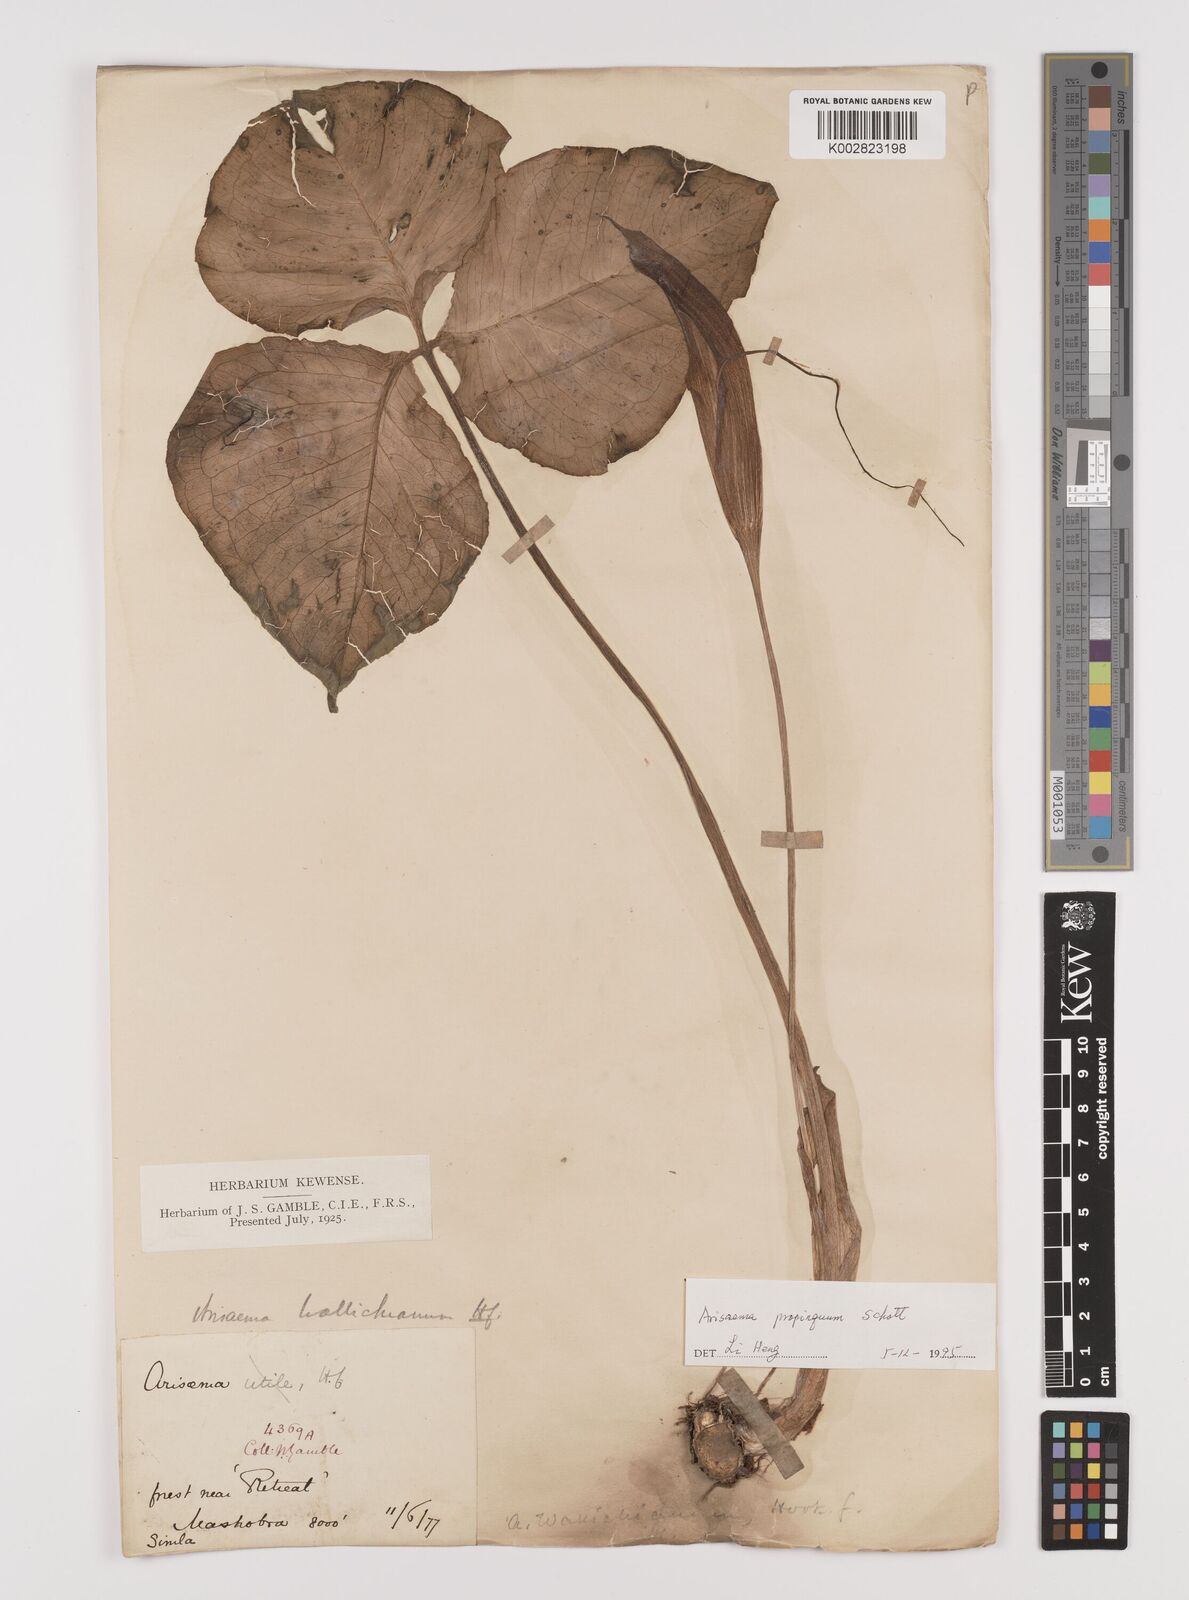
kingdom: Plantae
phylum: Tracheophyta
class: Liliopsida
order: Alismatales
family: Araceae
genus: Arisaema
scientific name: Arisaema propinquum
